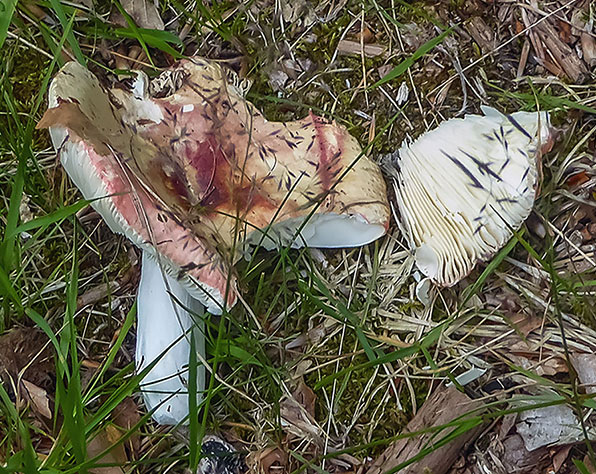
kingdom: Fungi
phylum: Basidiomycota
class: Agaricomycetes
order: Russulales
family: Russulaceae
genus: Russula
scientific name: Russula faginea
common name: bøge-skørhat
